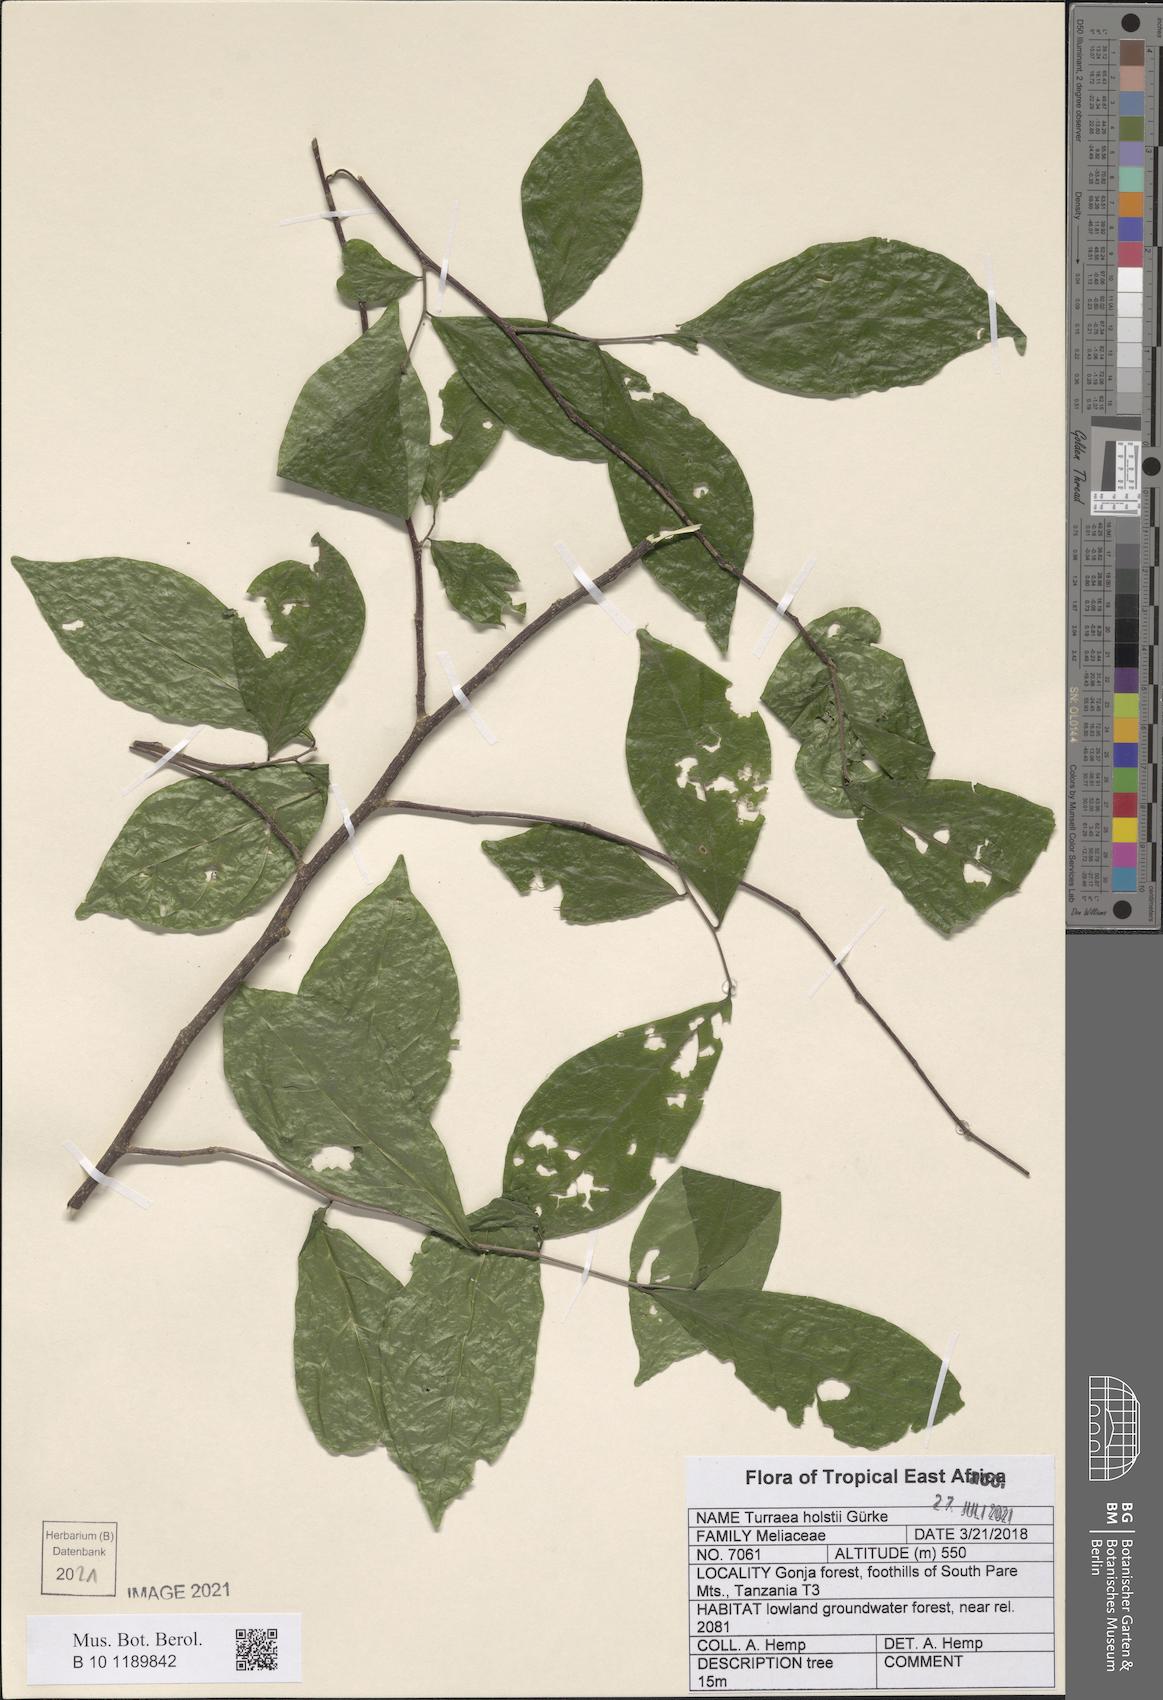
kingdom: Plantae
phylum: Tracheophyta
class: Magnoliopsida
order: Sapindales
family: Meliaceae
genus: Turraea
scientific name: Turraea holstii
